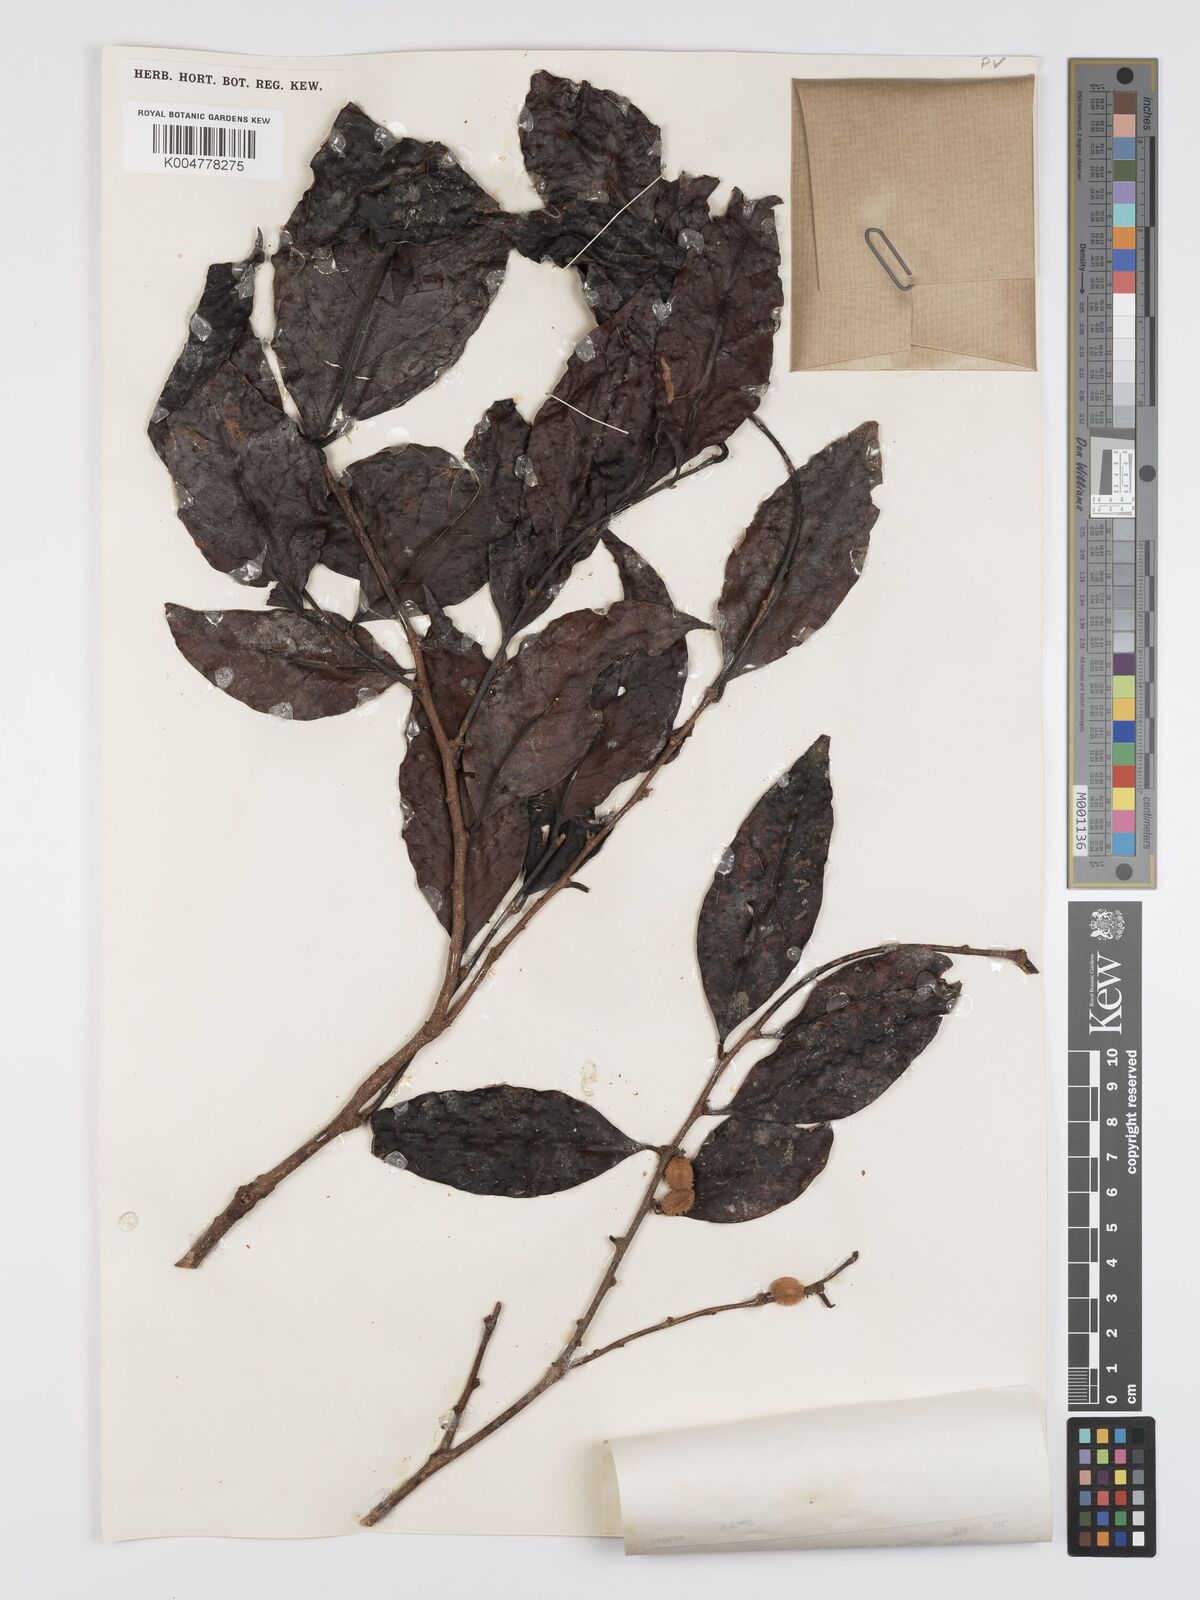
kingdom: Plantae
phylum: Tracheophyta
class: Magnoliopsida
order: Malpighiales
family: Peraceae
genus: Chaetocarpus
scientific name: Chaetocarpus castanocarpus
